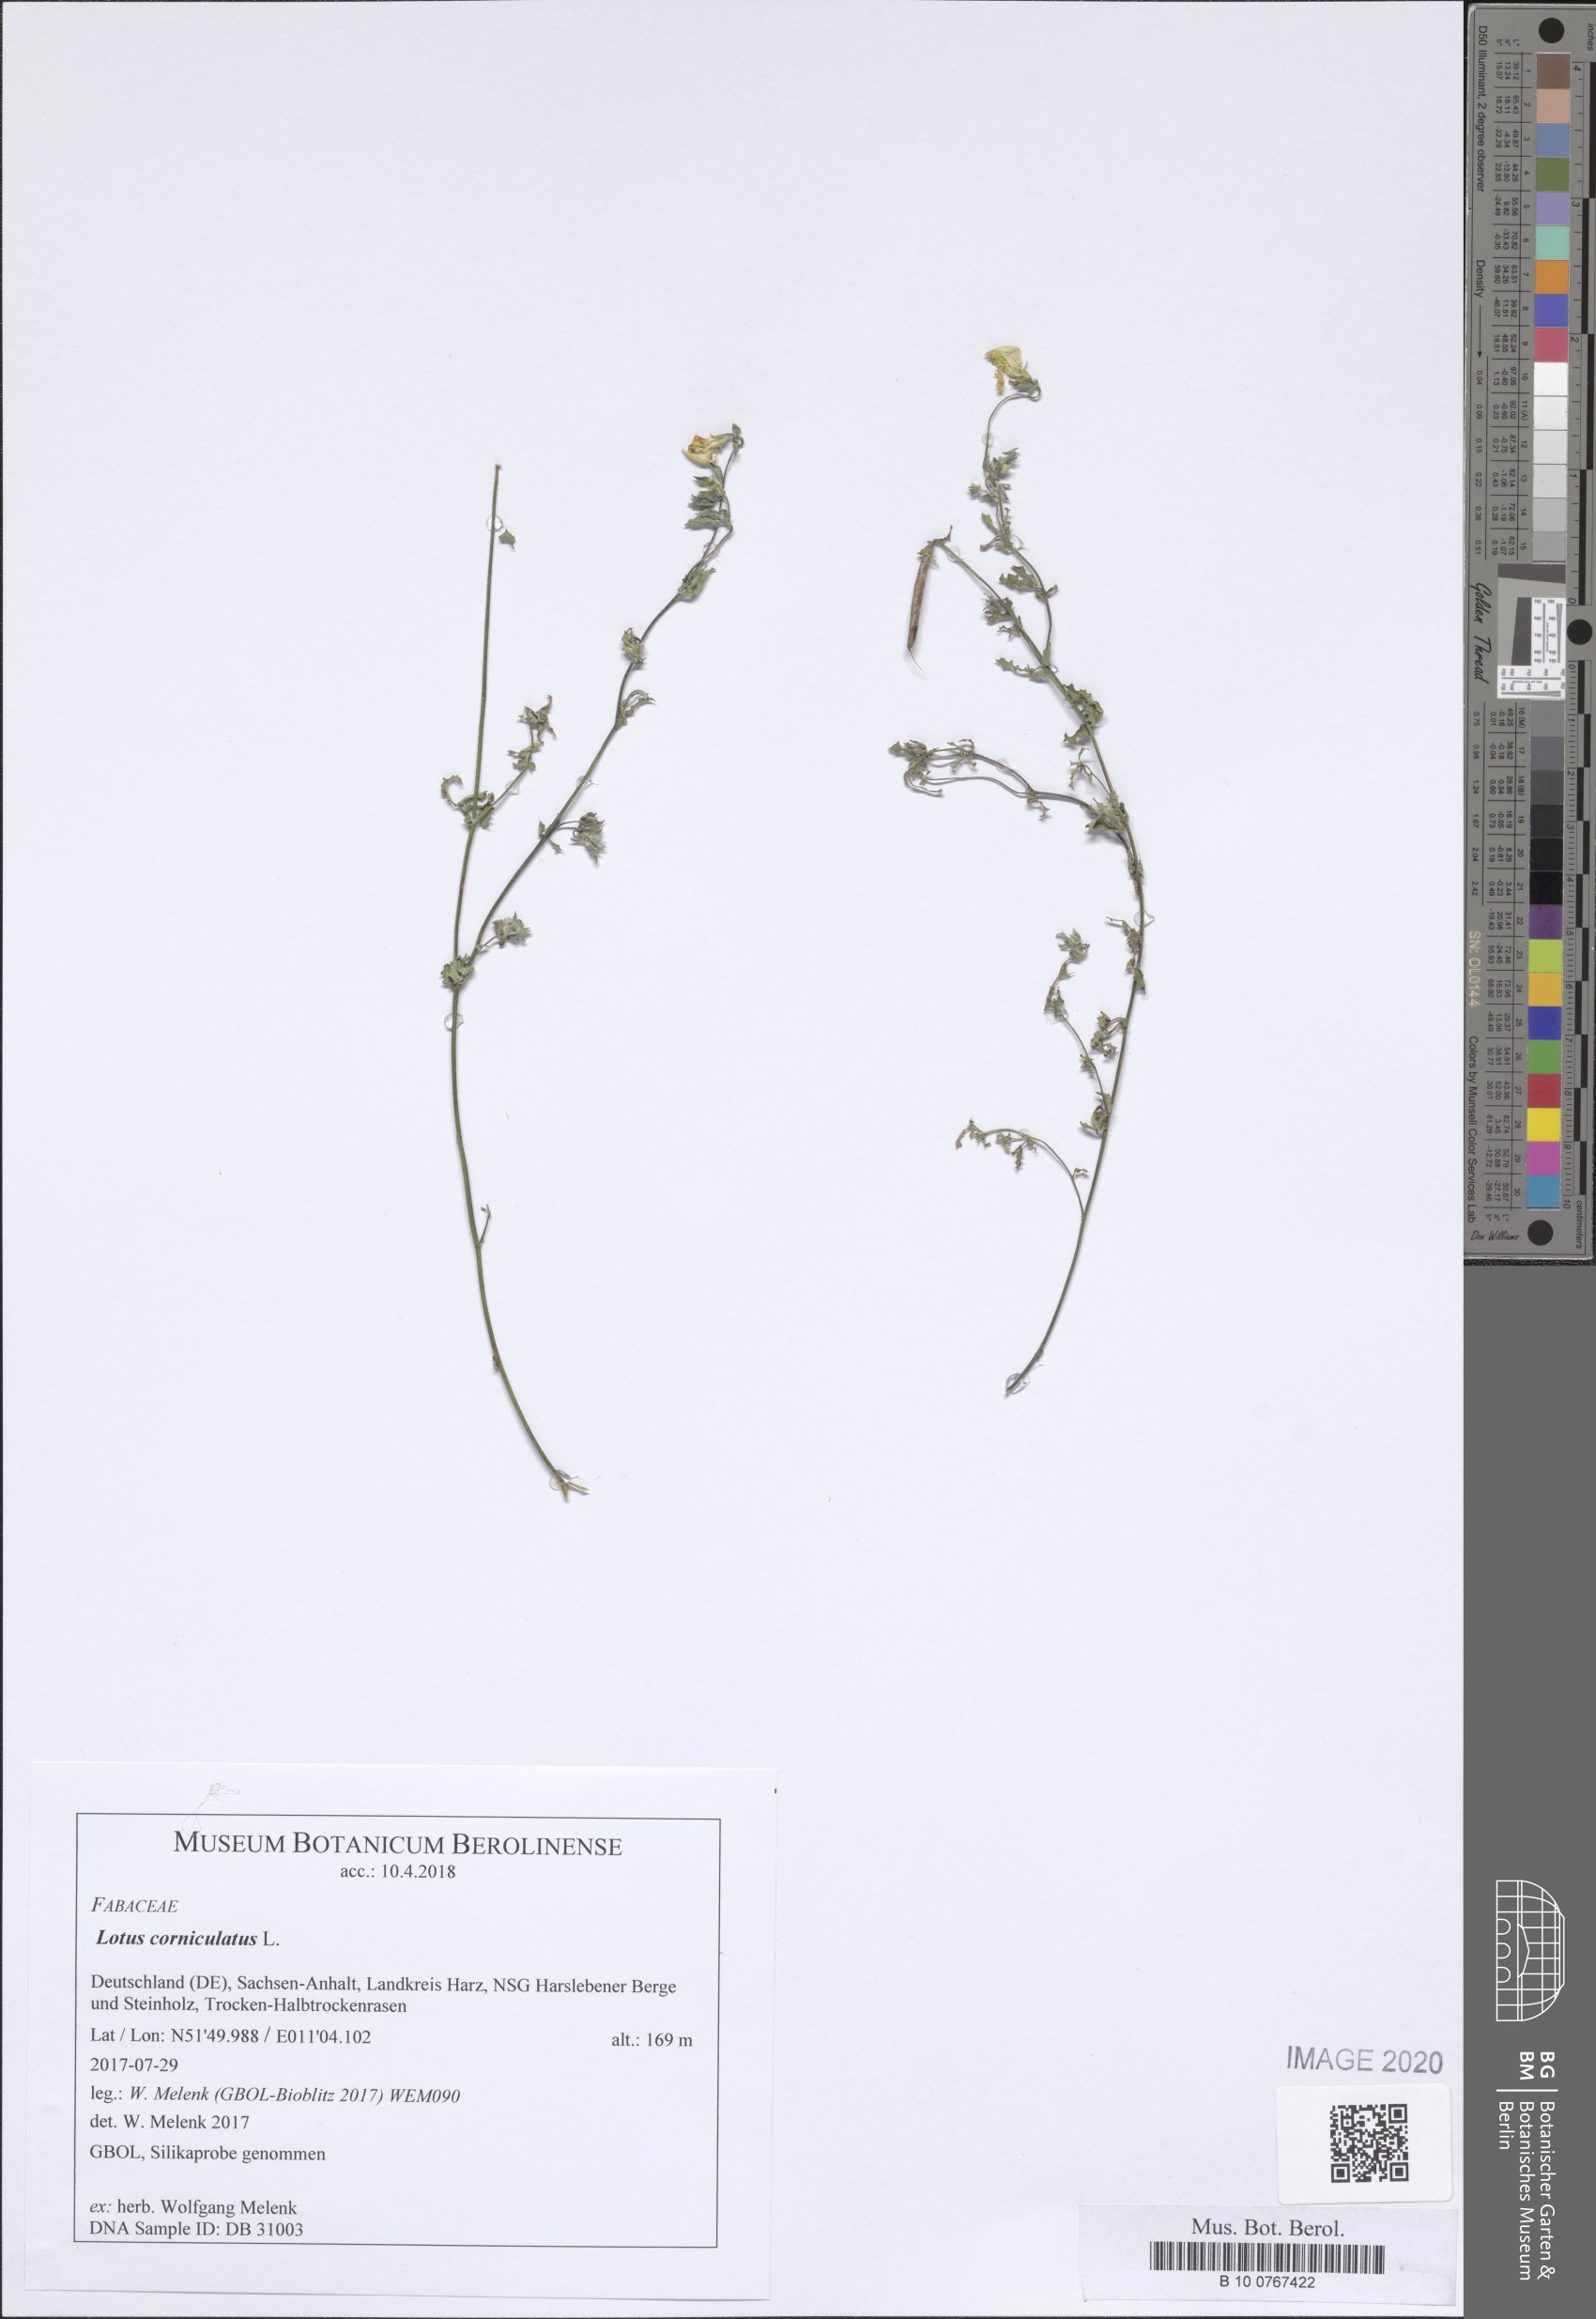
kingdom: Plantae
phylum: Tracheophyta
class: Magnoliopsida
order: Fabales
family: Fabaceae
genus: Lotus
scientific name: Lotus corniculatus
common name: Common bird's-foot-trefoil
